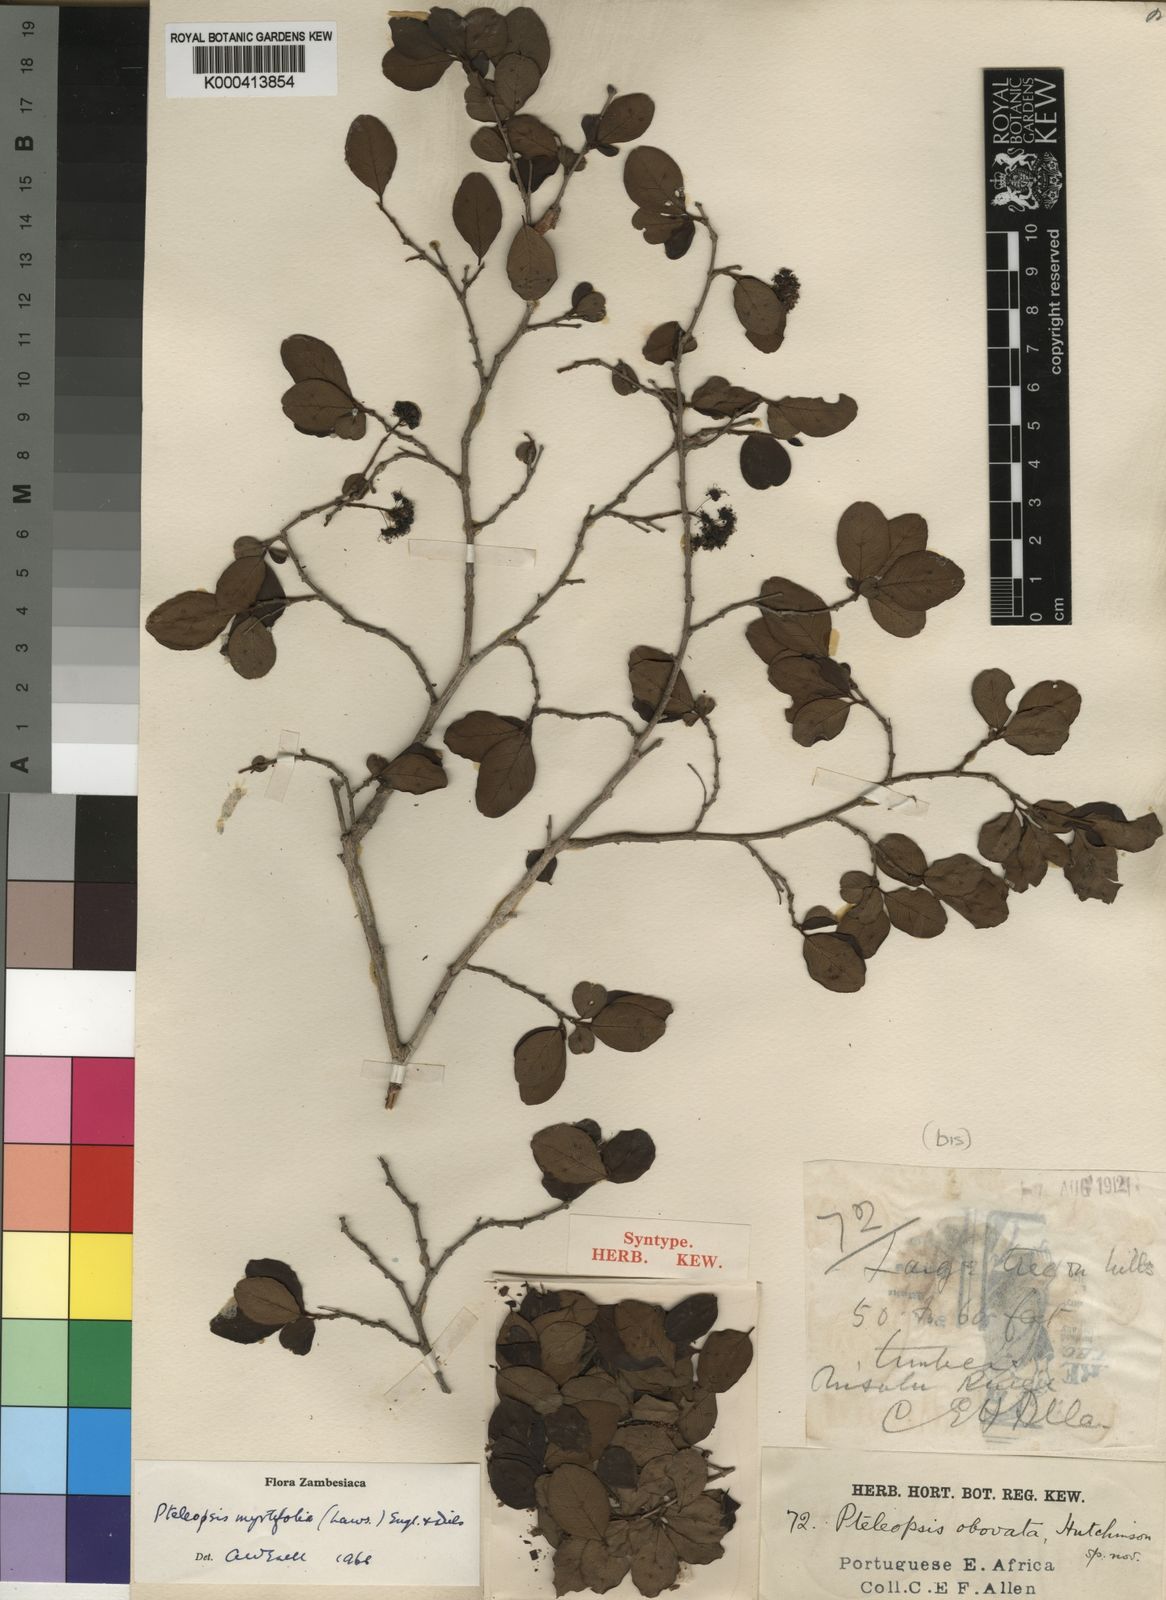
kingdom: Plantae
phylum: Tracheophyta
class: Magnoliopsida
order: Myrtales
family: Combretaceae
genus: Terminalia
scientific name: Terminalia myrtifolia
